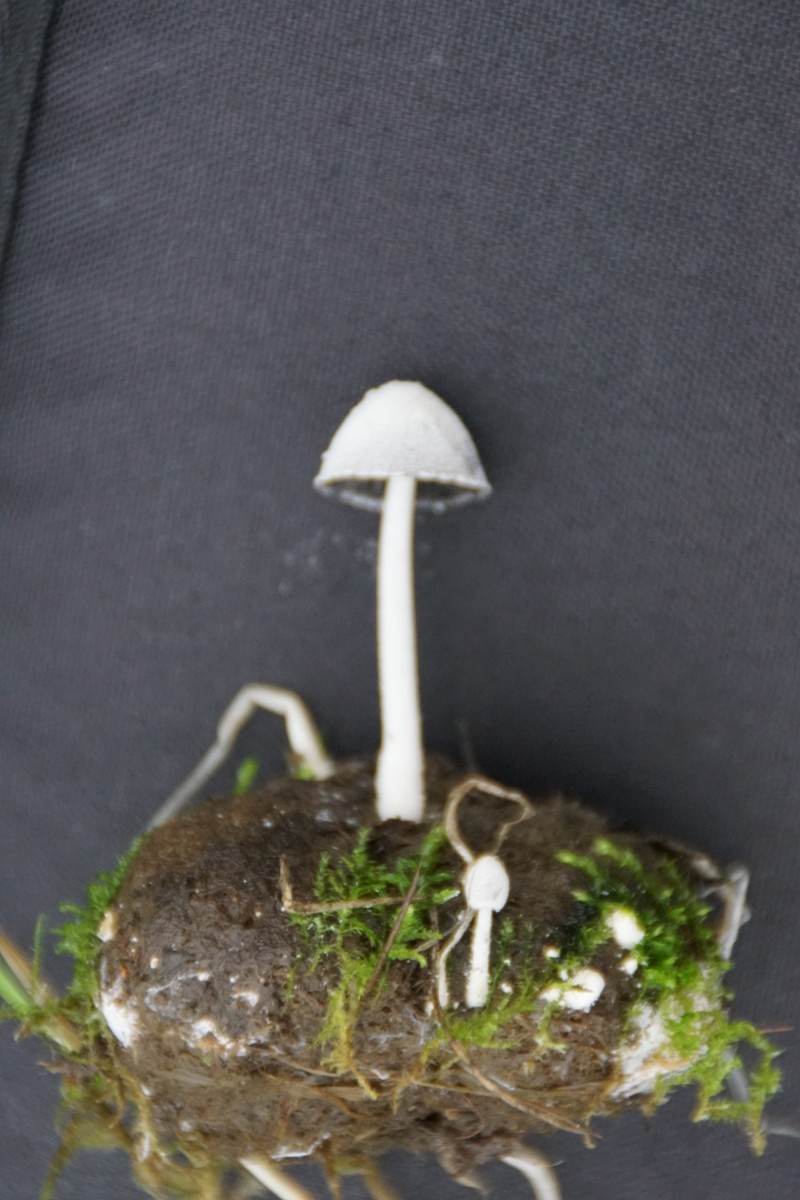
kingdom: Fungi
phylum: Basidiomycota
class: Agaricomycetes
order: Agaricales
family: Psathyrellaceae
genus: Coprinopsis
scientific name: Coprinopsis nivea
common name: snehvid blækhat
